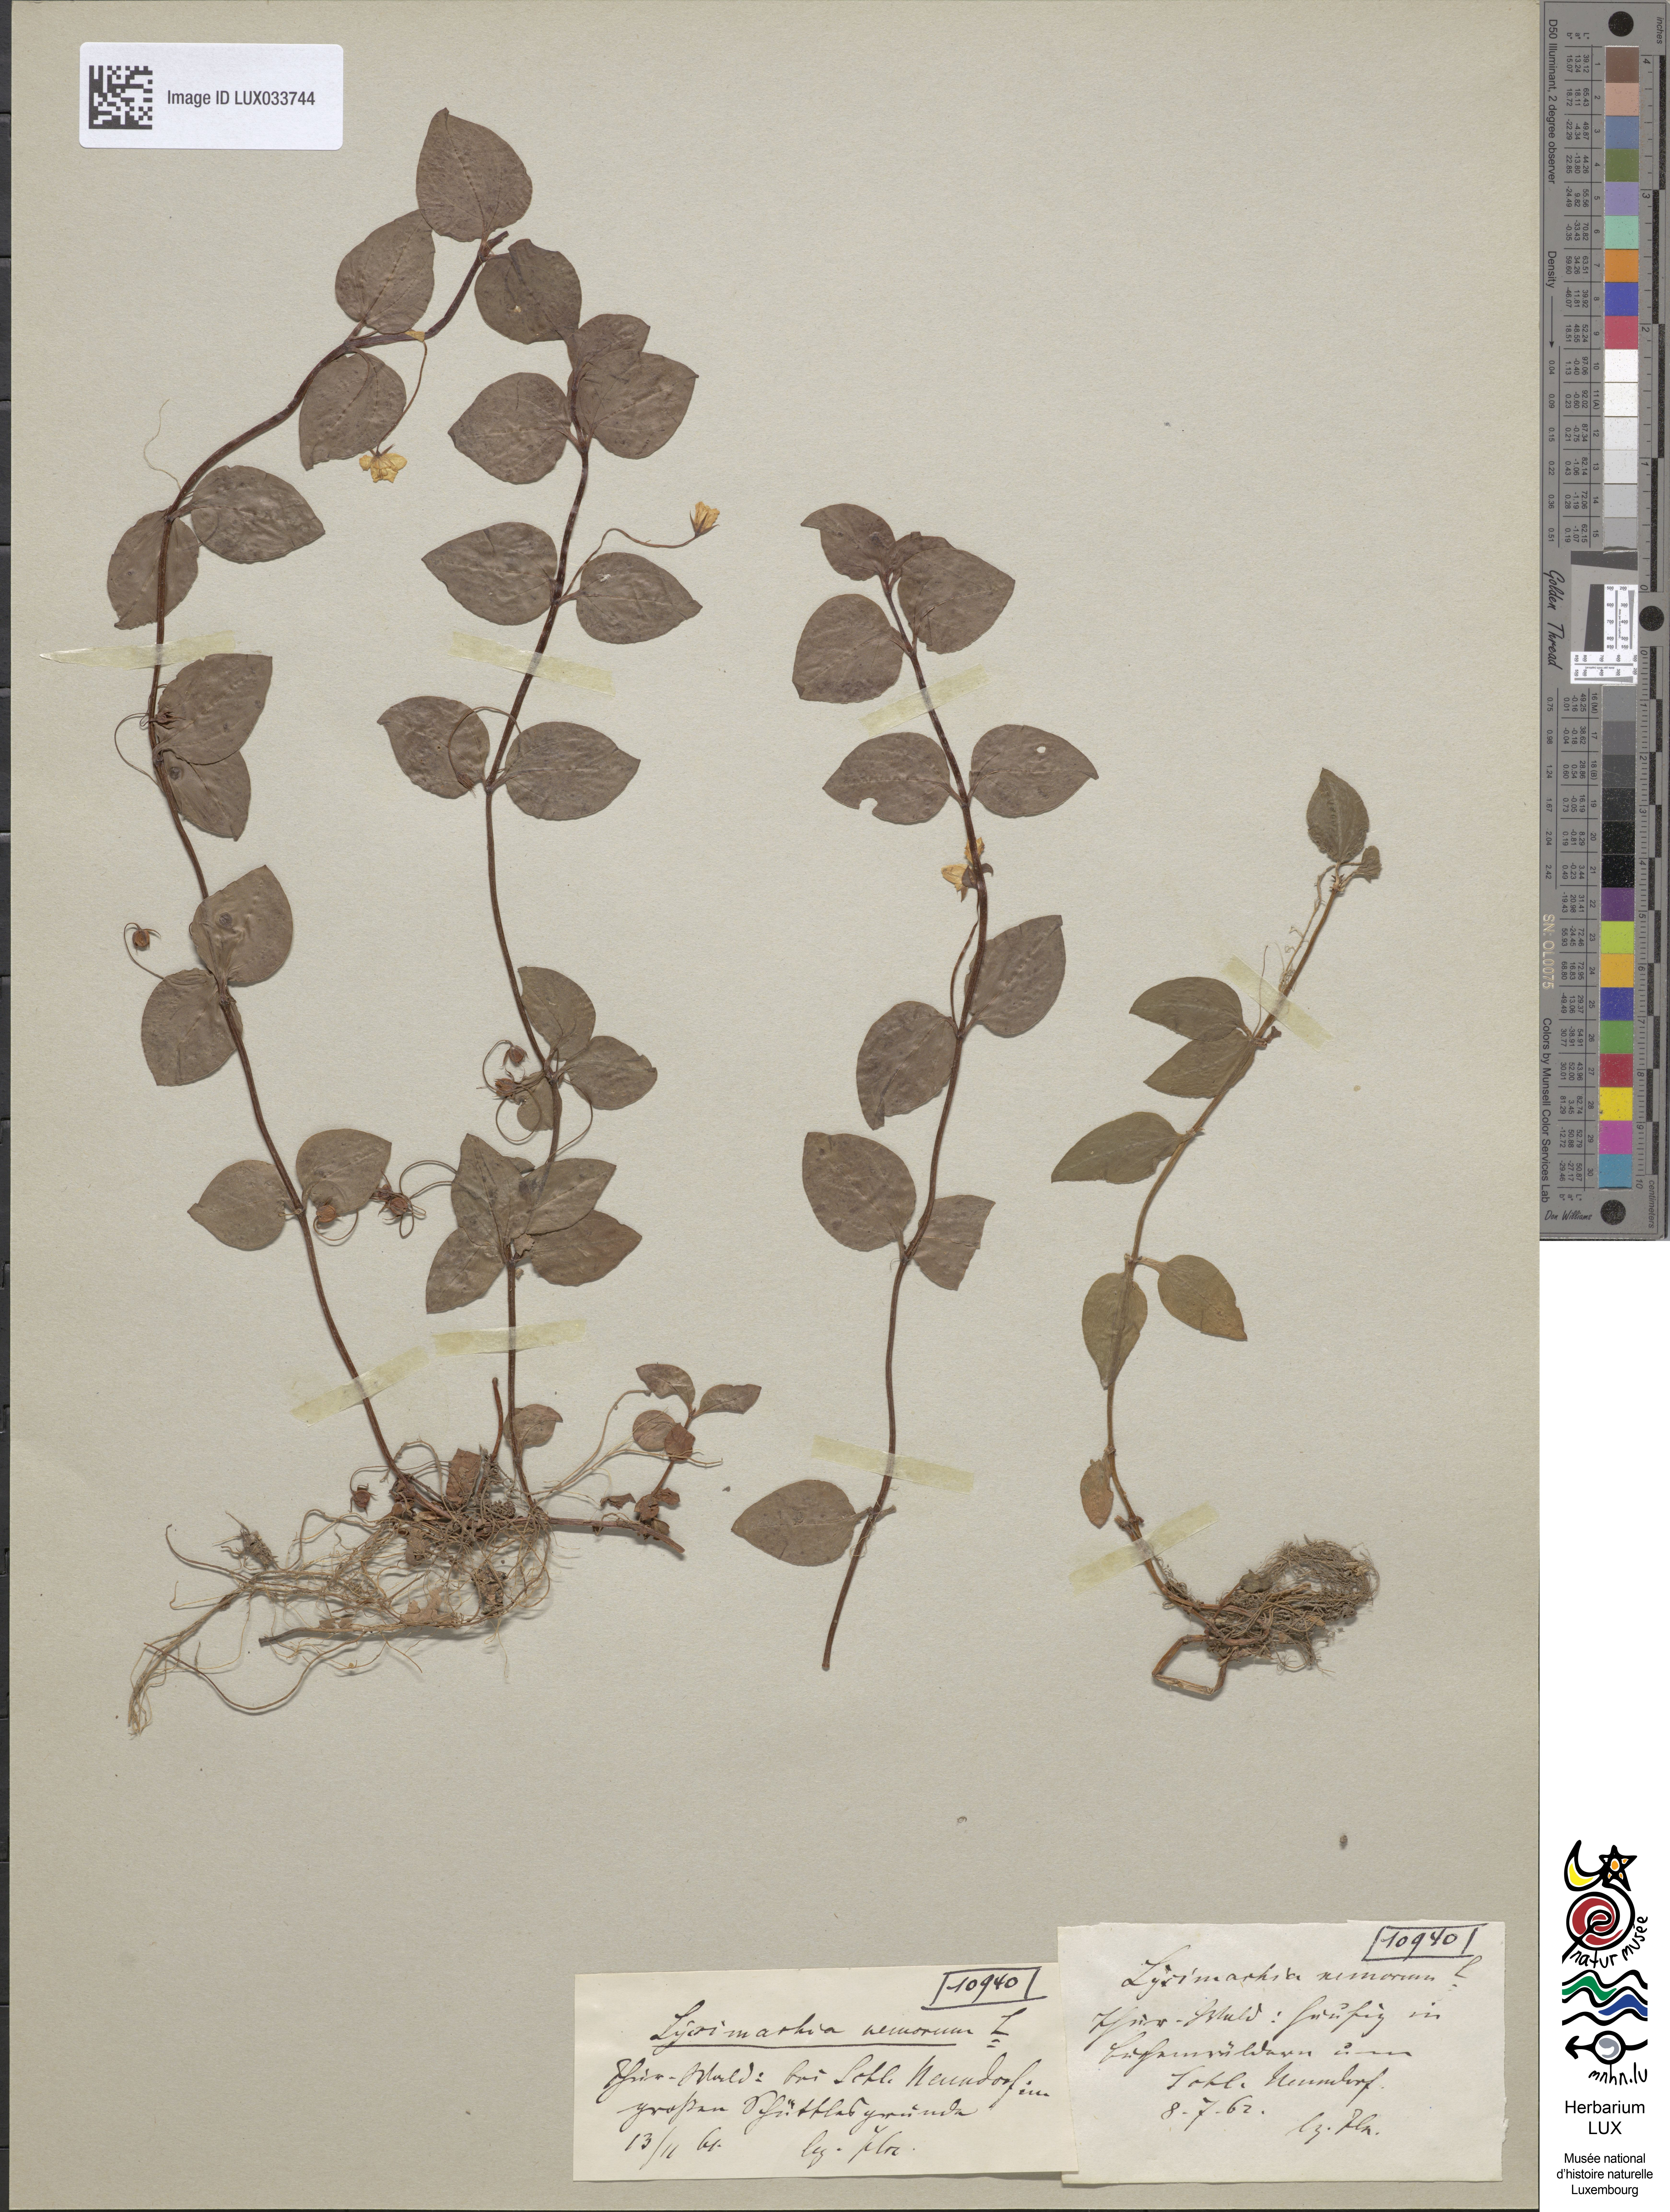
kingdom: Plantae
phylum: Tracheophyta
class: Magnoliopsida
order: Ericales
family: Primulaceae
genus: Lysimachia
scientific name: Lysimachia nemorum
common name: Yellow pimpernel
